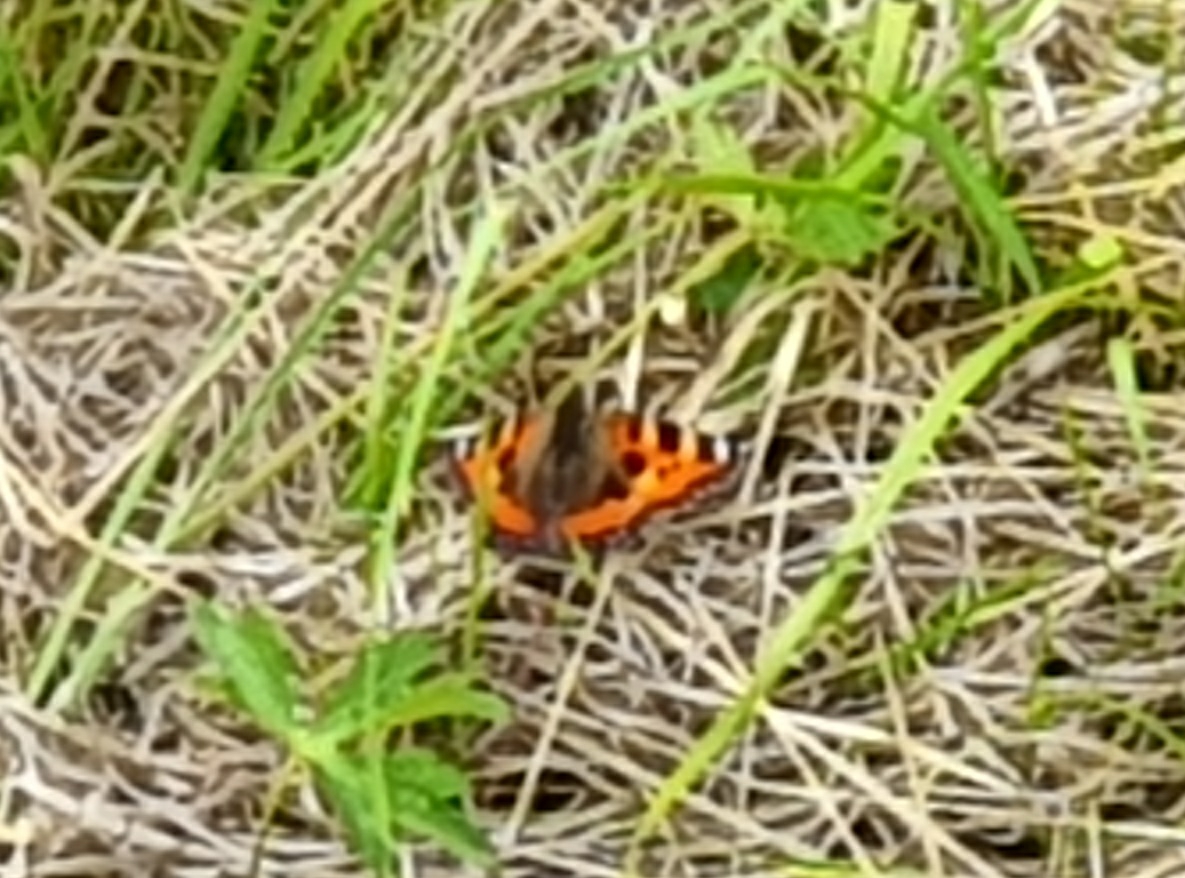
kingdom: Animalia
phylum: Arthropoda
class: Insecta
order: Lepidoptera
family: Nymphalidae
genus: Aglais
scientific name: Aglais urticae
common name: Nældens takvinge
